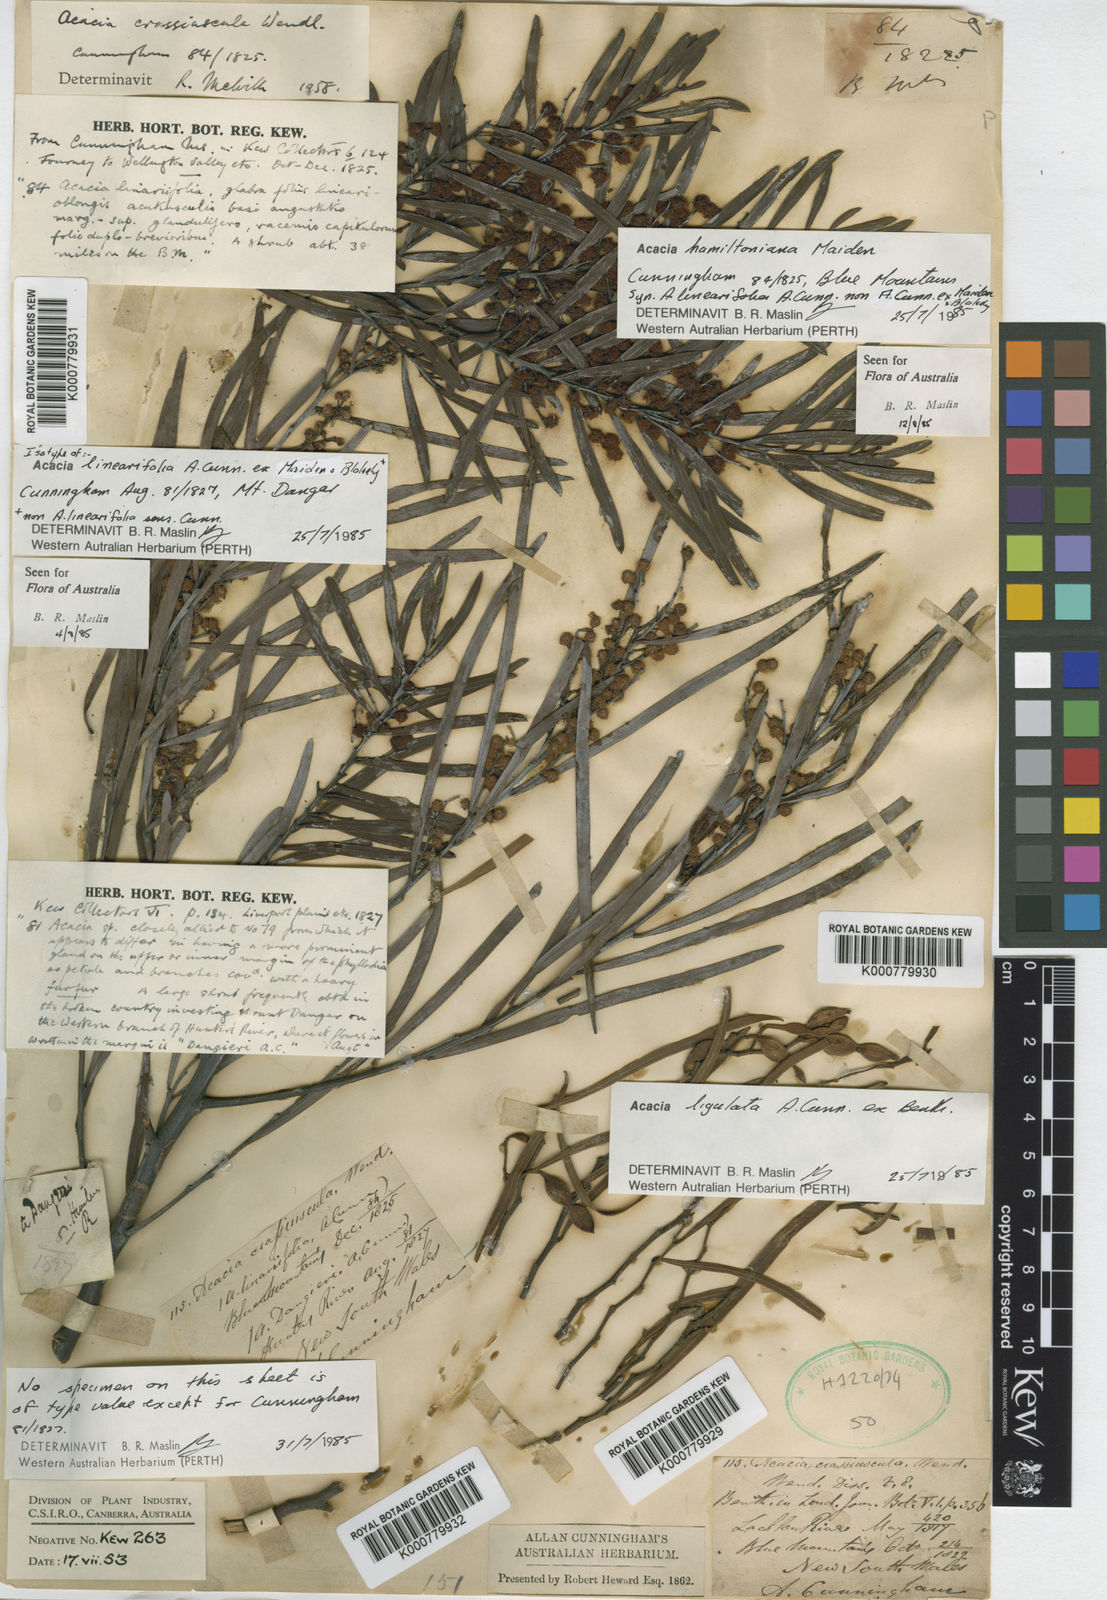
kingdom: Plantae
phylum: Tracheophyta
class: Magnoliopsida
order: Fabales
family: Fabaceae
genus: Acacia
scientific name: Acacia hamiltoniana
